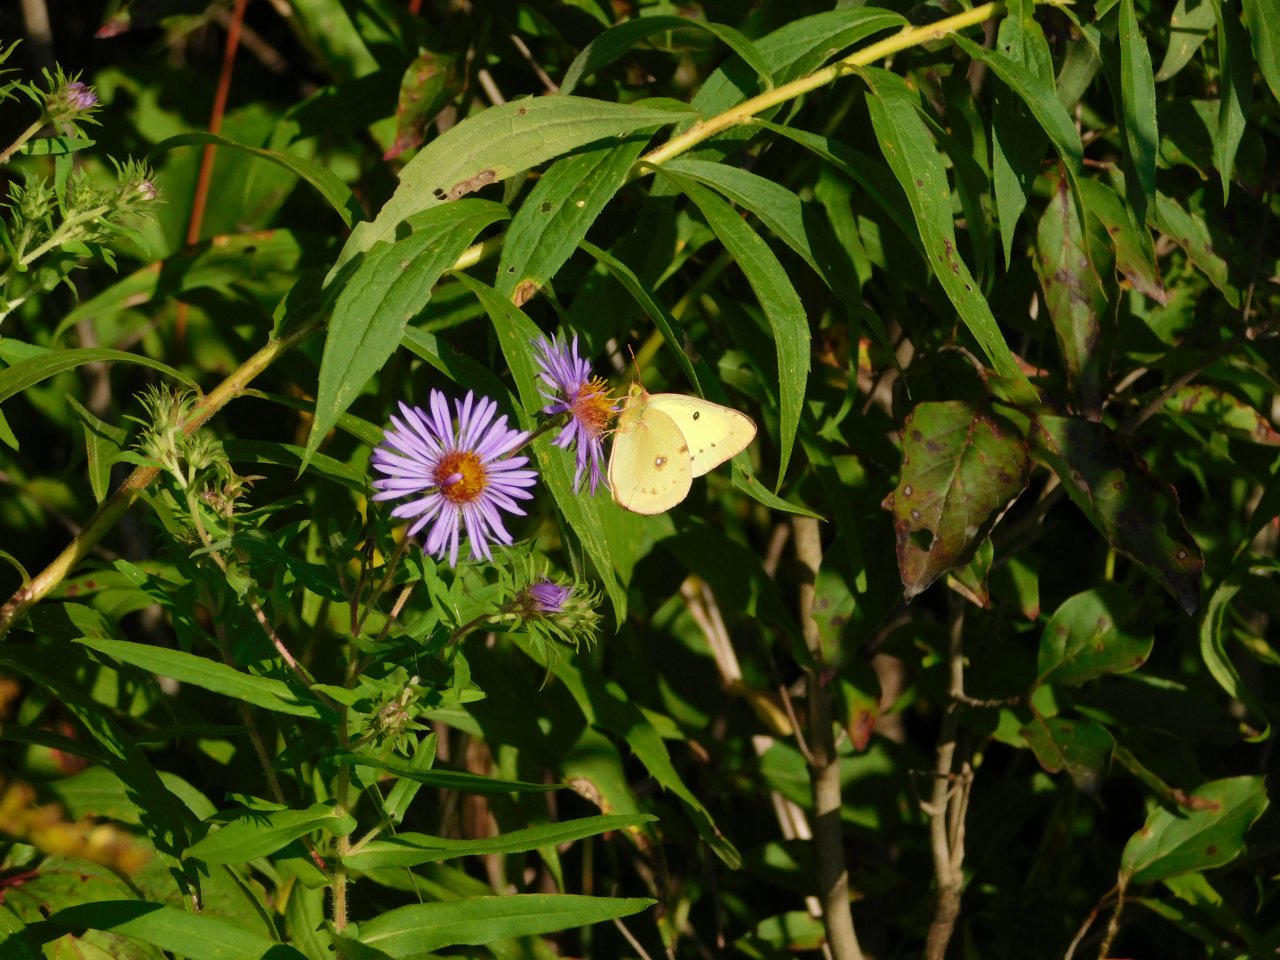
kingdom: Animalia
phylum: Arthropoda
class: Insecta
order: Lepidoptera
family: Pieridae
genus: Colias
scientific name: Colias philodice
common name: Clouded Sulphur
